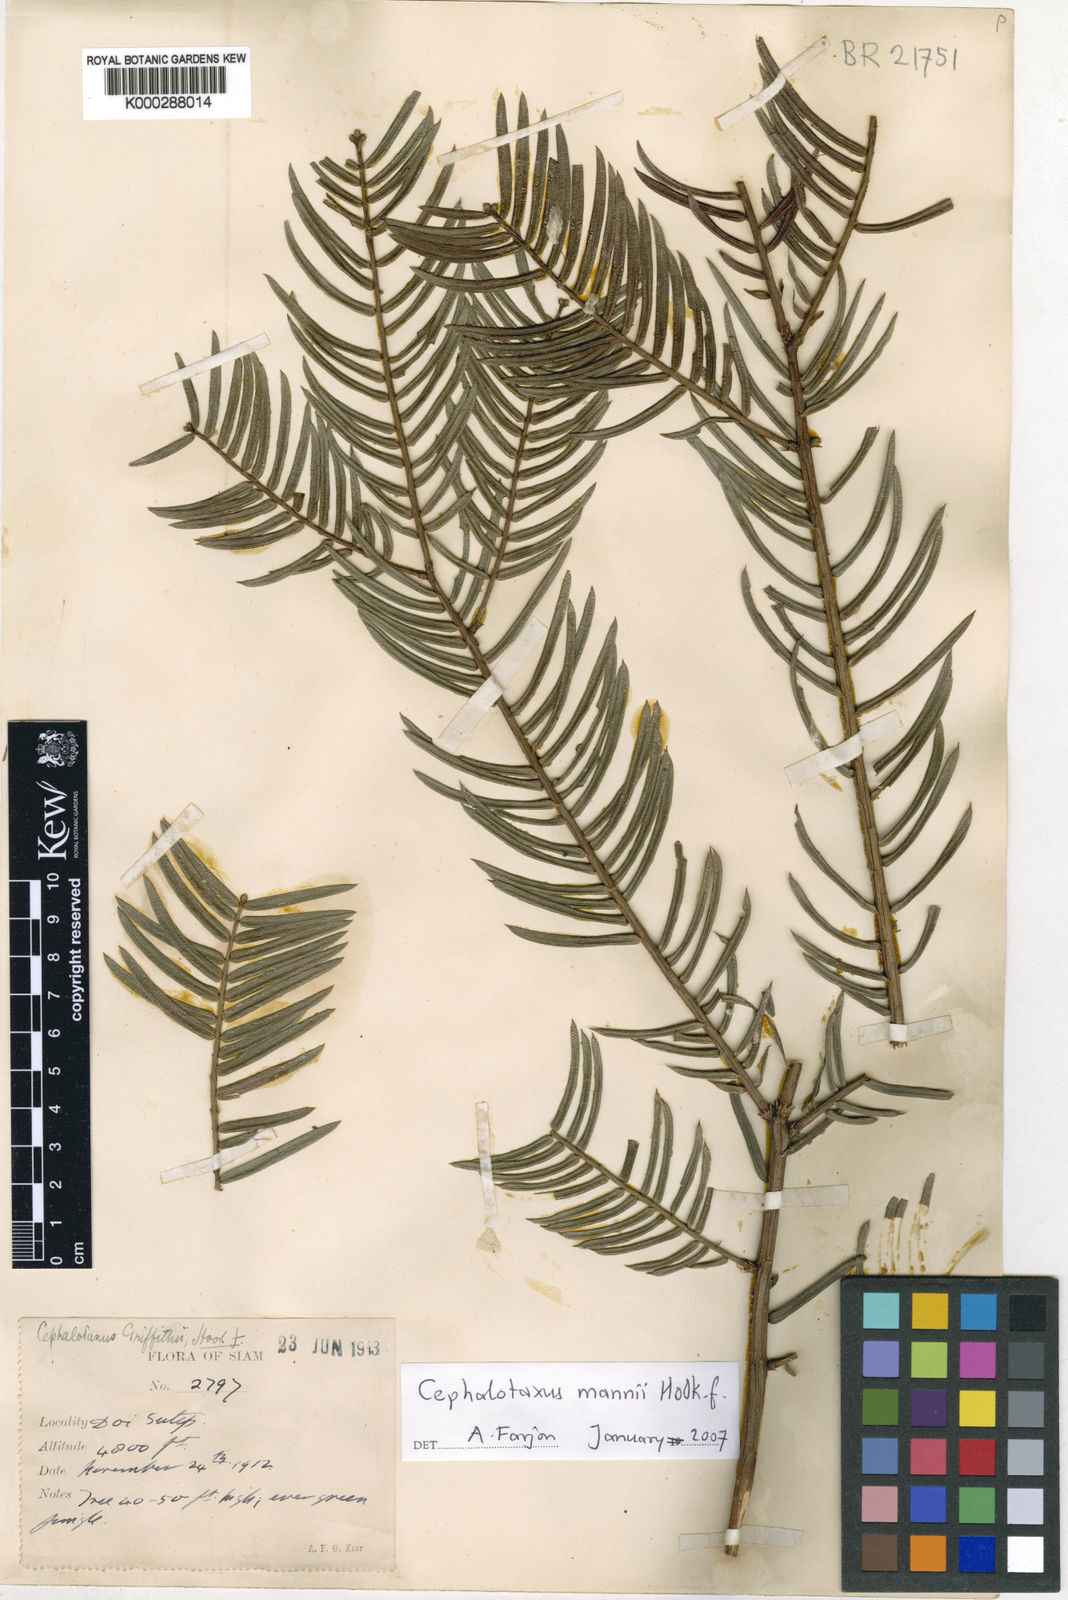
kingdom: Plantae
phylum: Tracheophyta
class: Pinopsida
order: Pinales
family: Cephalotaxaceae
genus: Cephalotaxus
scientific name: Cephalotaxus mannii
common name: Mann's yew plum
